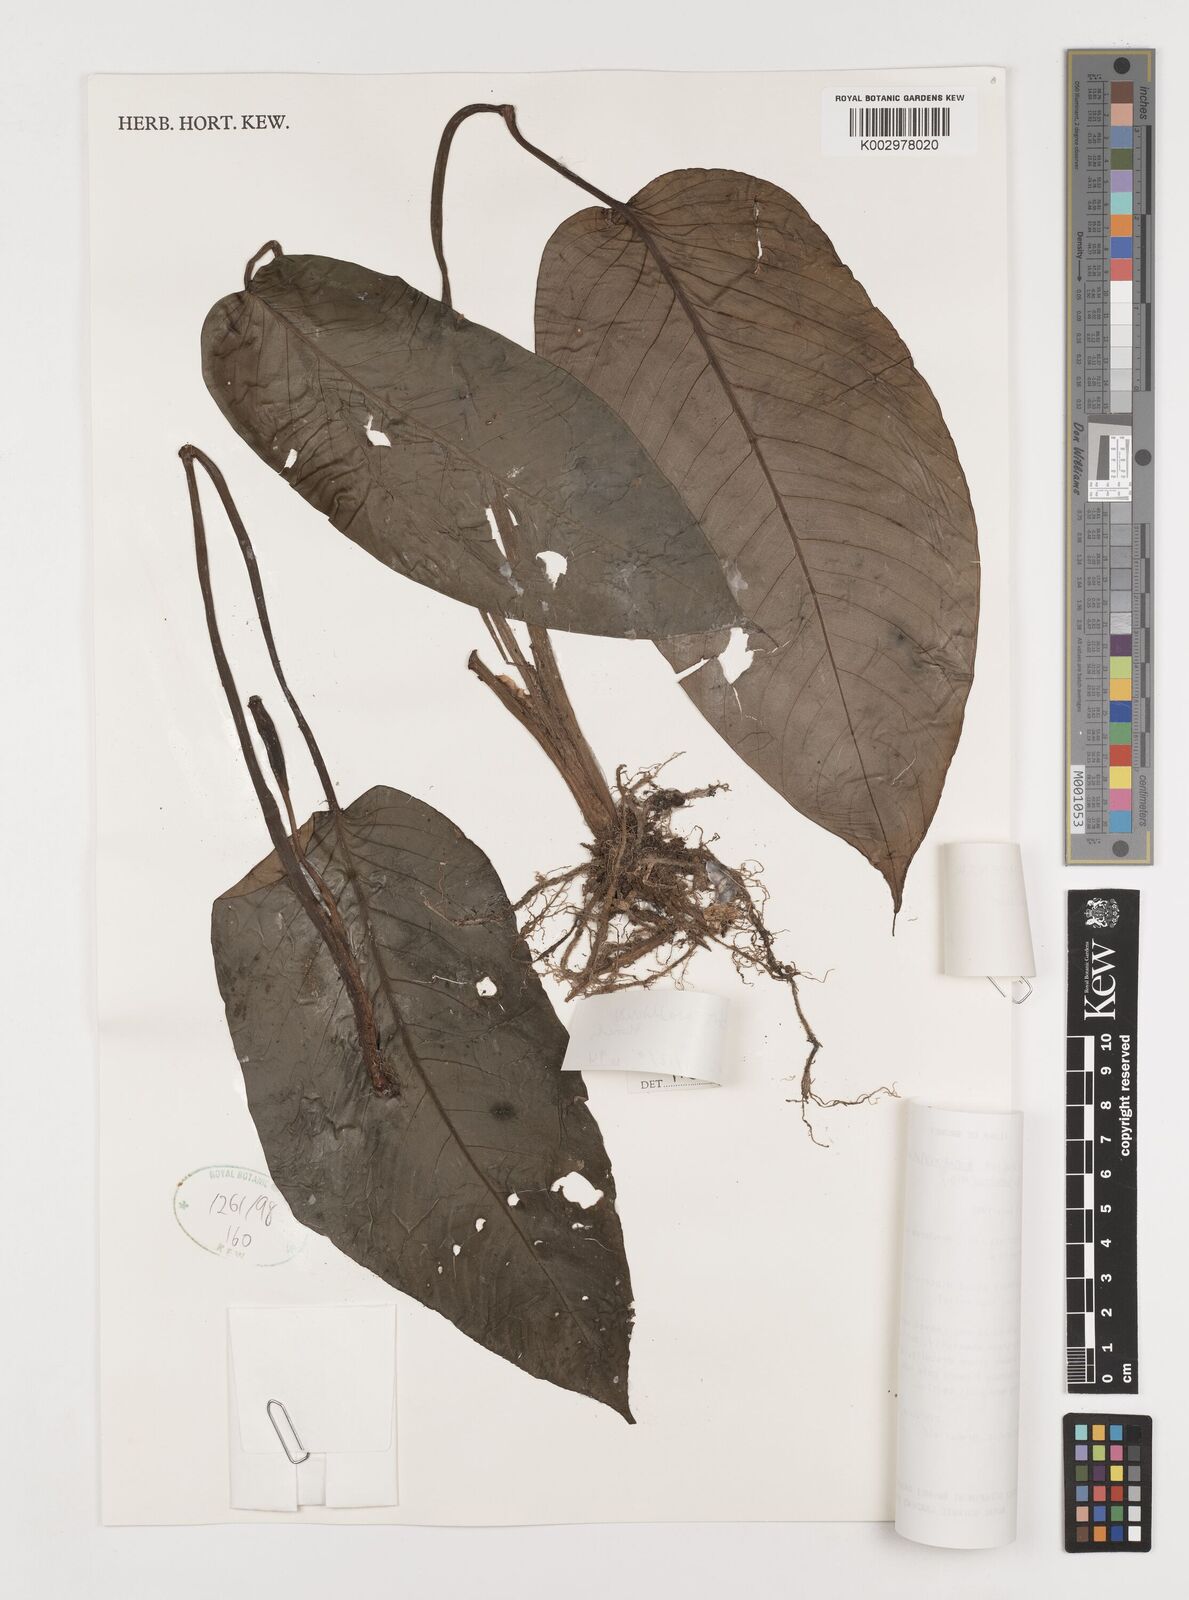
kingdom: Plantae
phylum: Tracheophyta
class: Liliopsida
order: Alismatales
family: Araceae
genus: Schismatoglottis
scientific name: Schismatoglottis motleyana
